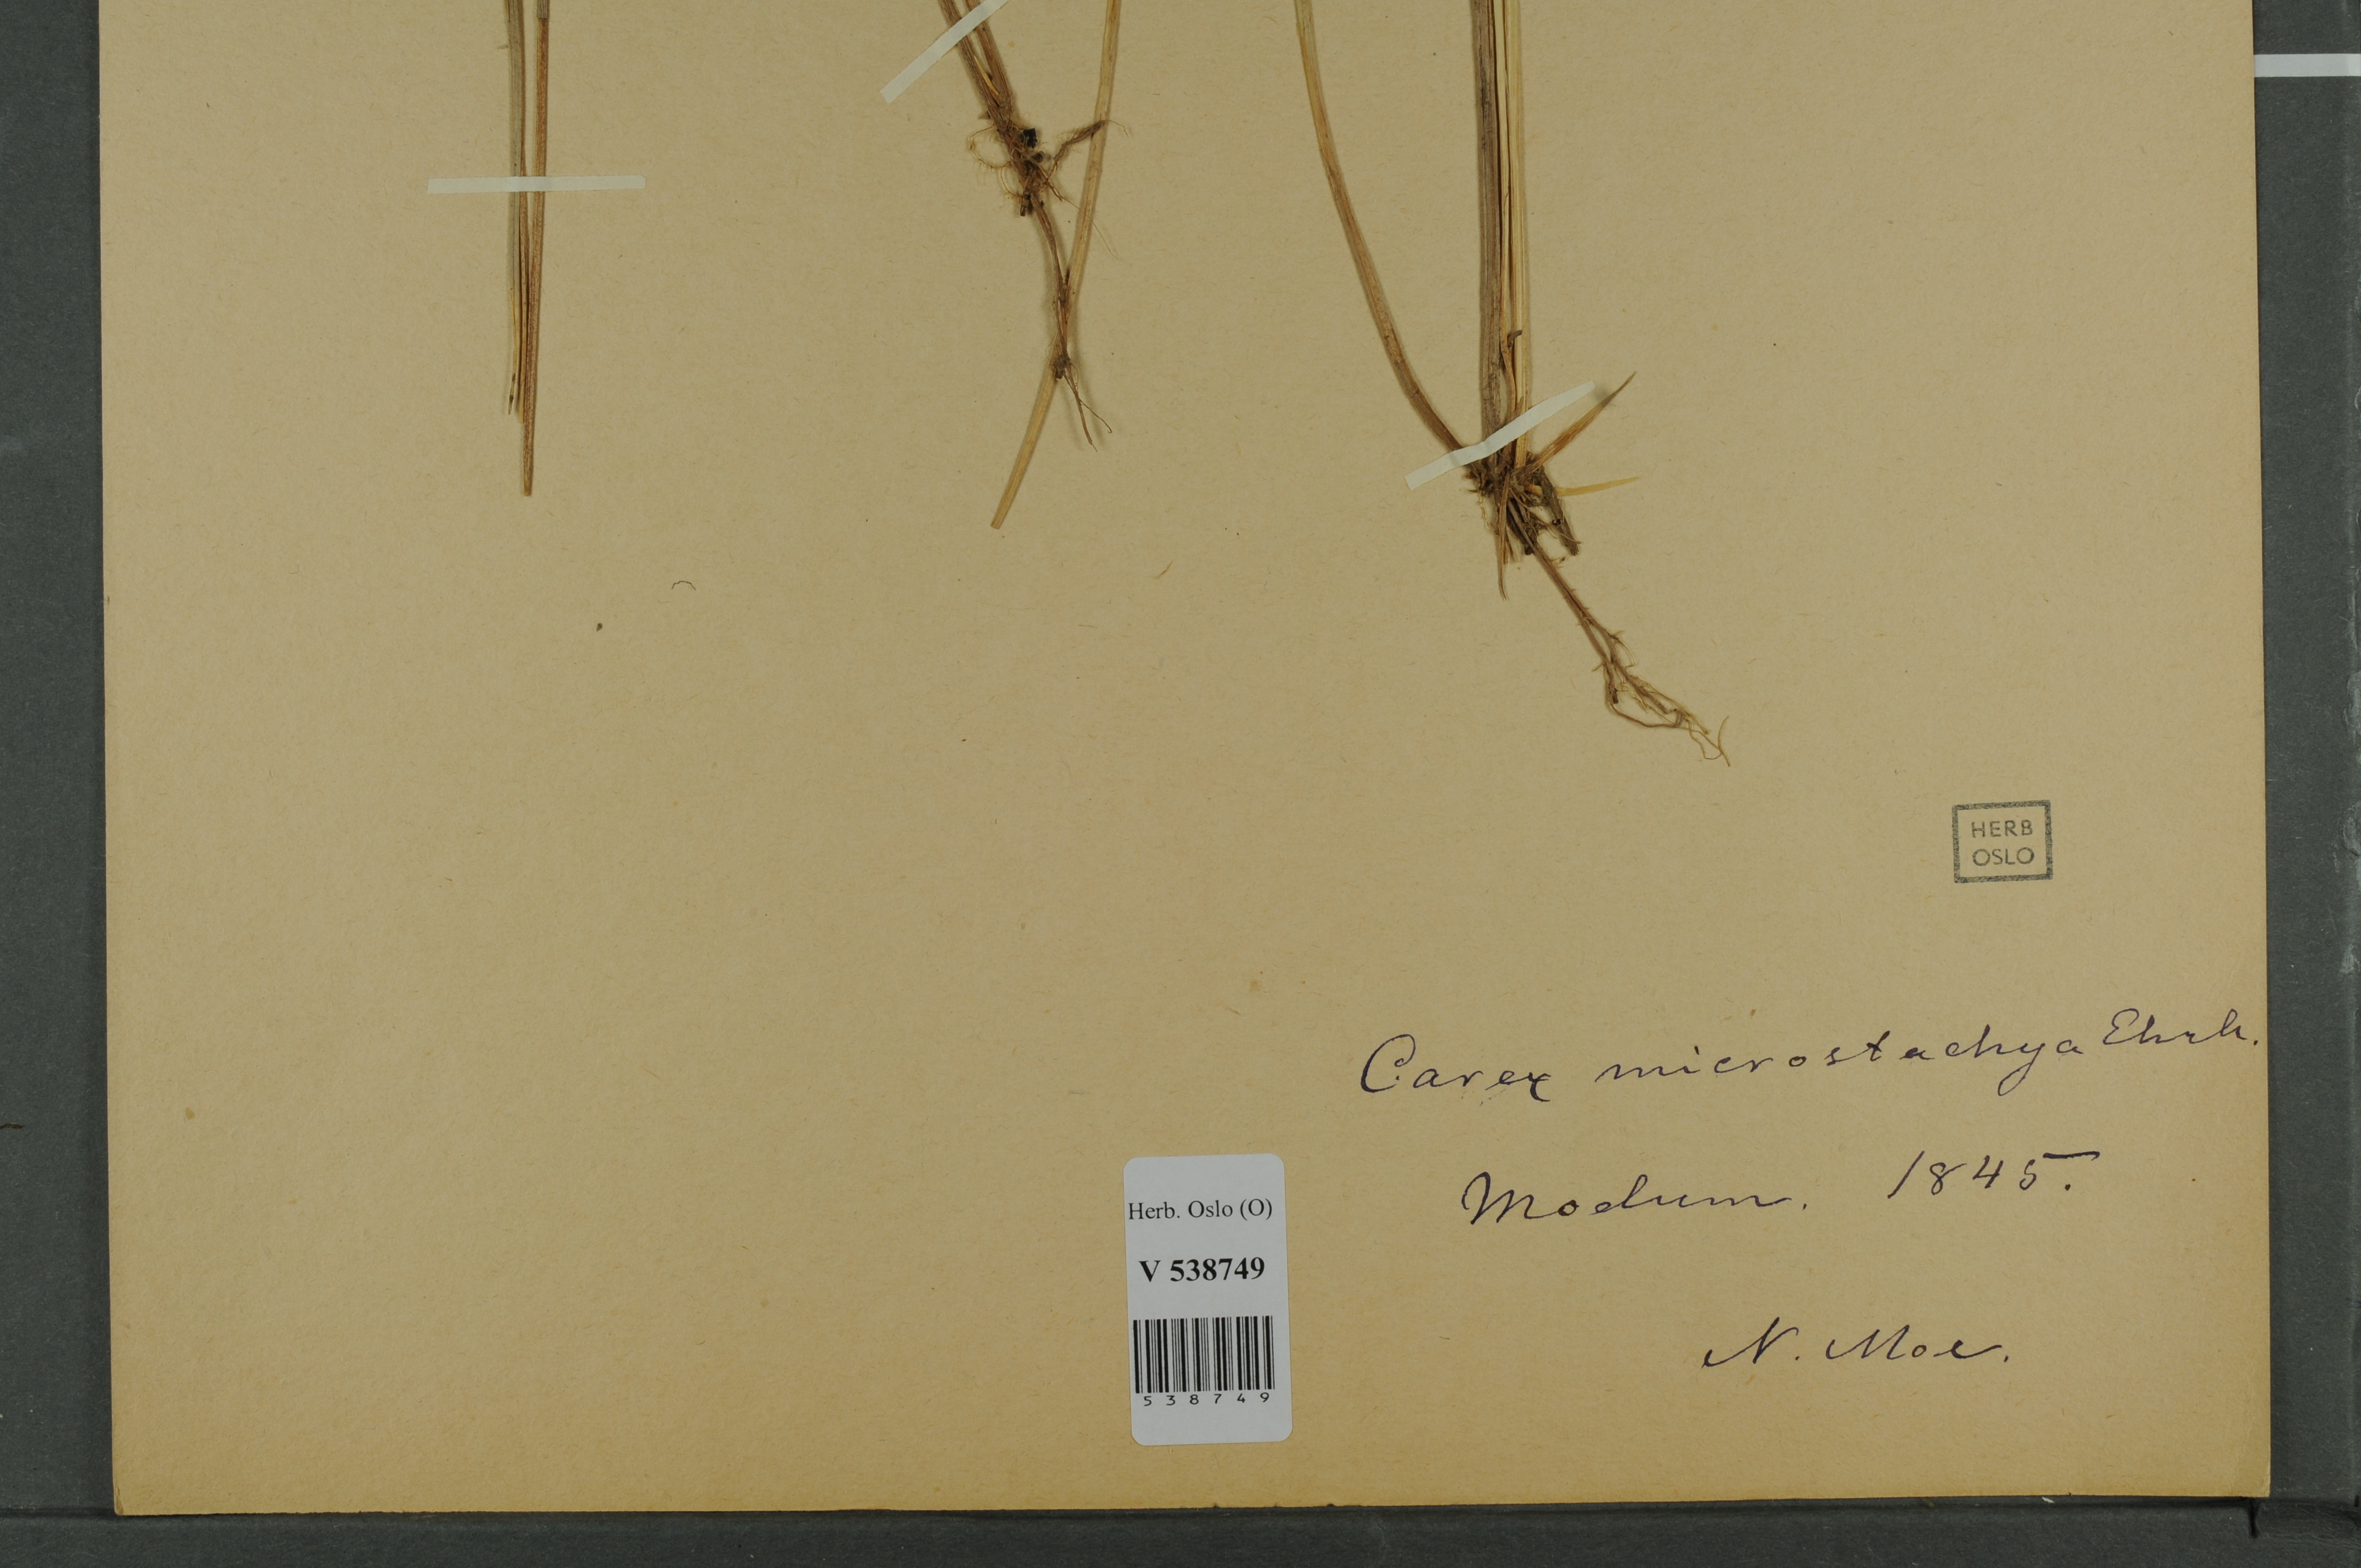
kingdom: Plantae
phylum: Tracheophyta
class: Liliopsida
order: Poales
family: Cyperaceae
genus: Carex
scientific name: Carex
